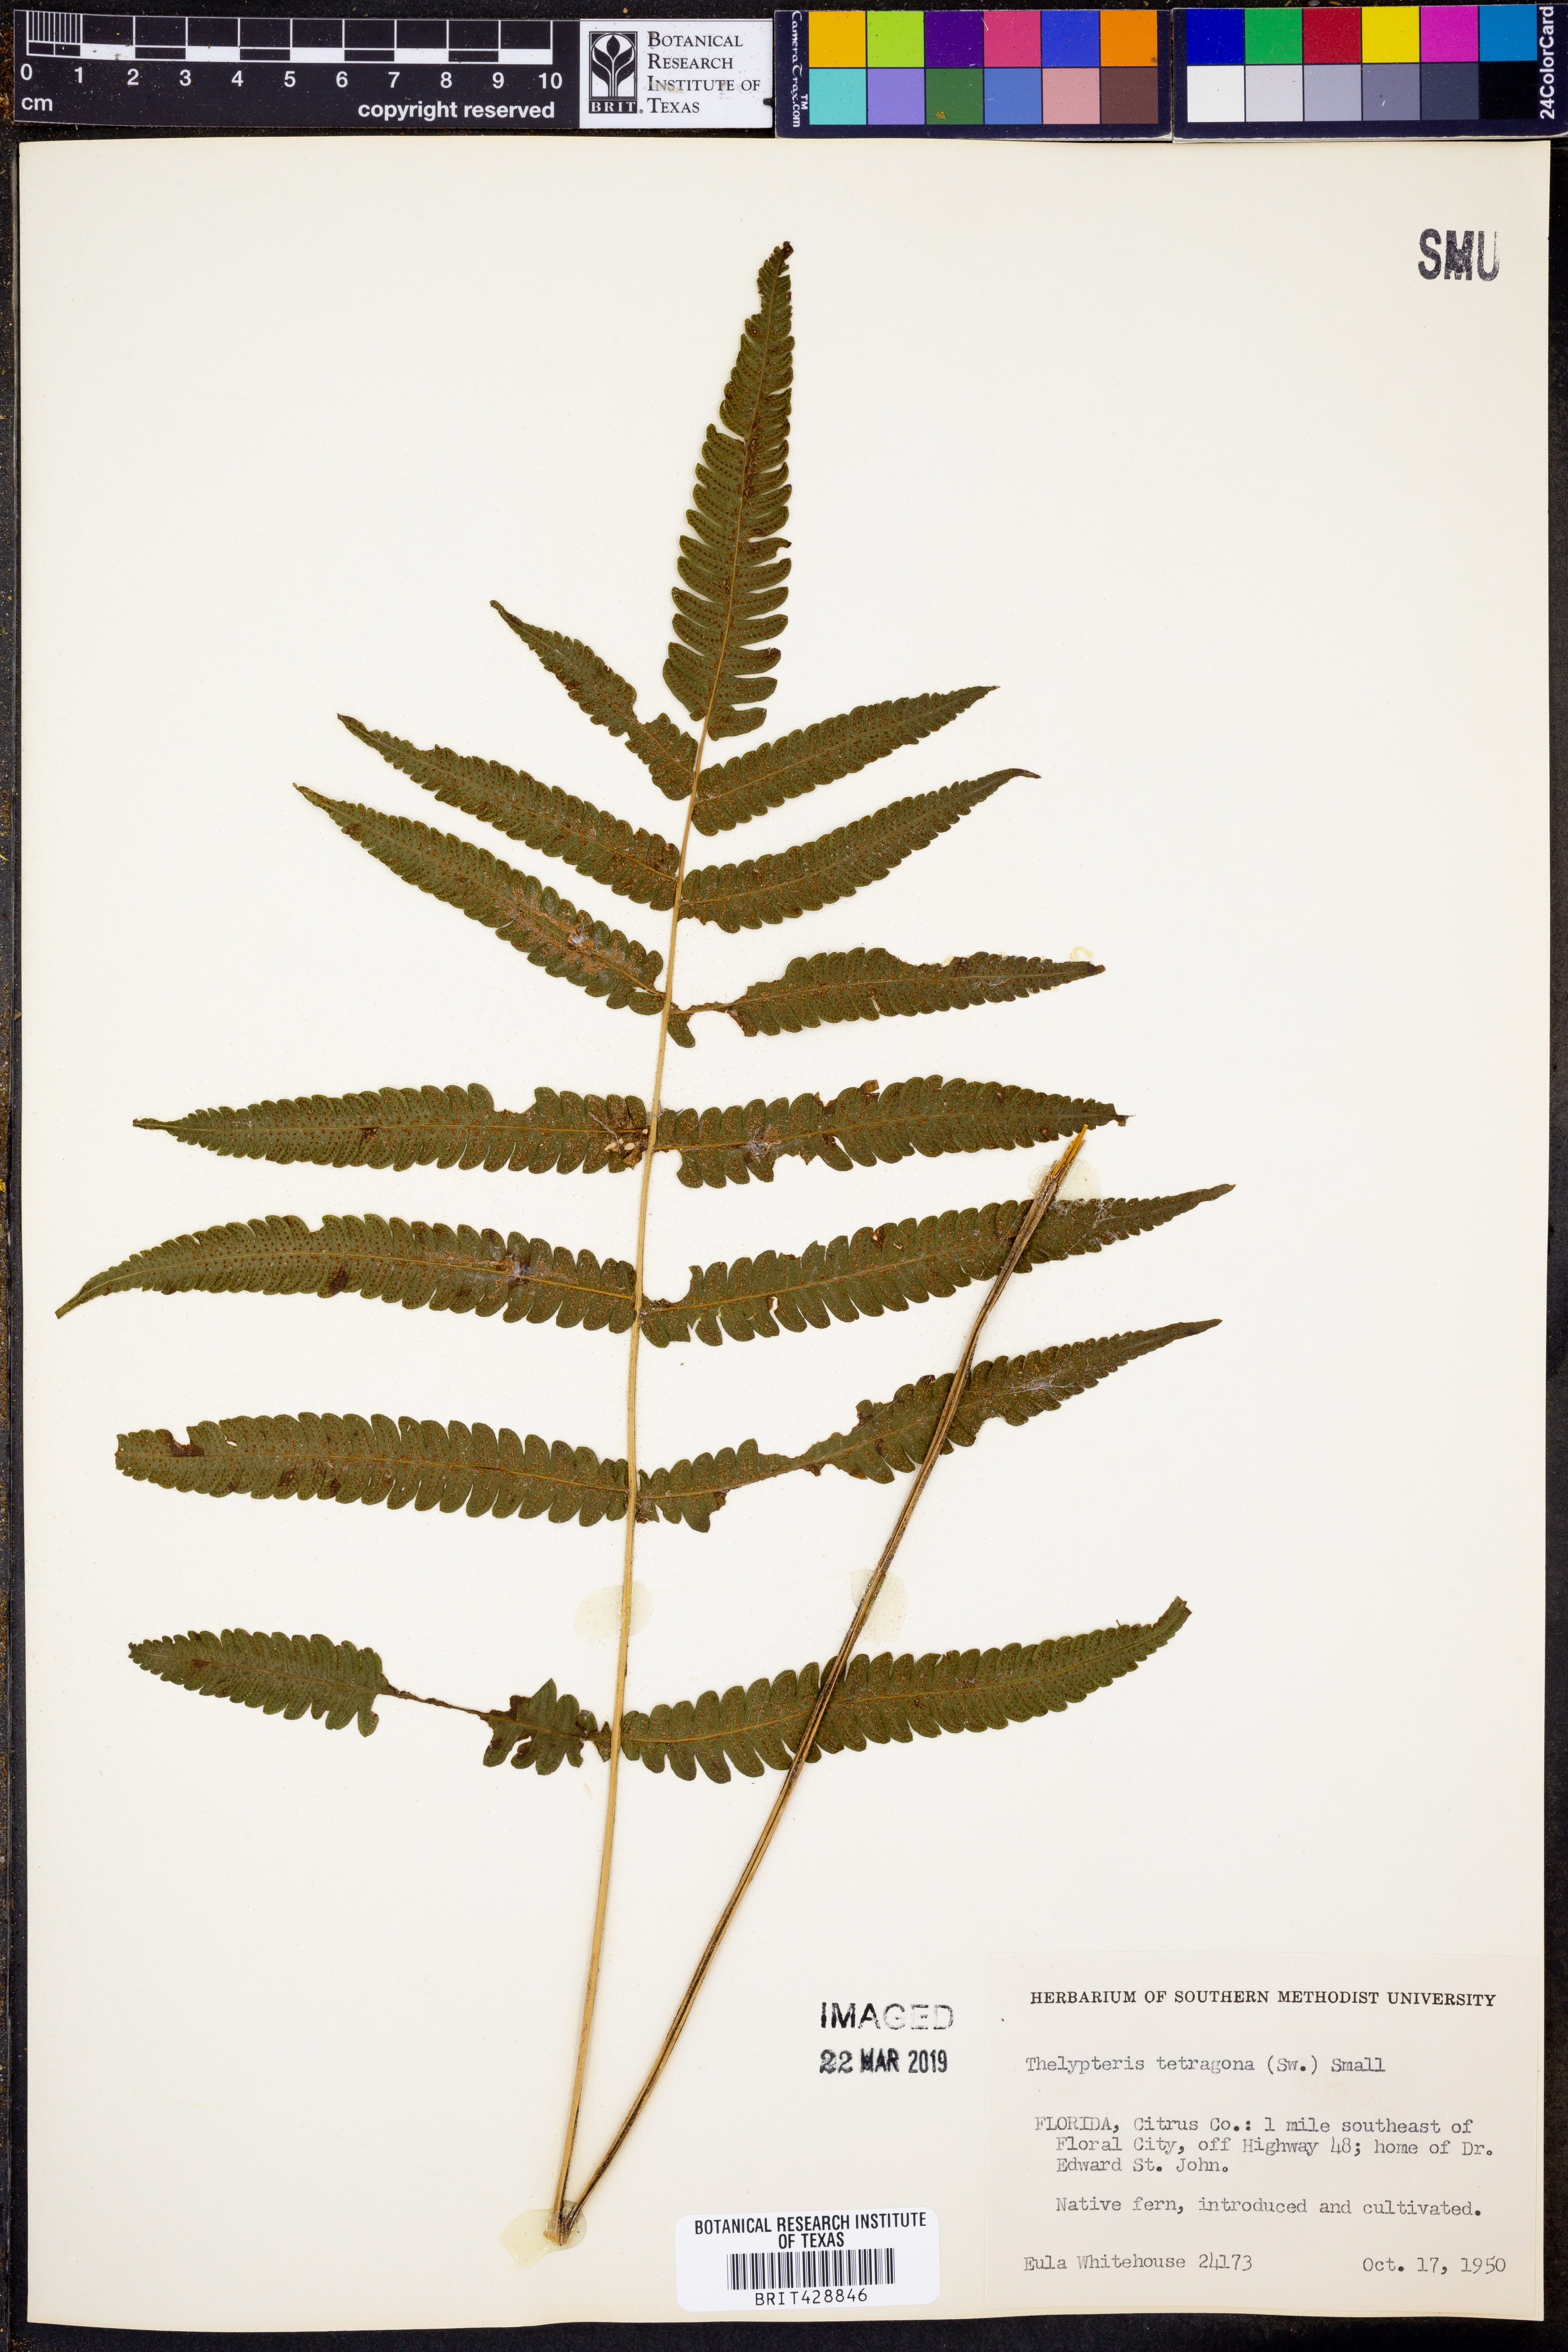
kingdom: Plantae
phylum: Tracheophyta
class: Polypodiopsida
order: Polypodiales
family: Thelypteridaceae
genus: Goniopteris
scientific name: Goniopteris tetragona
